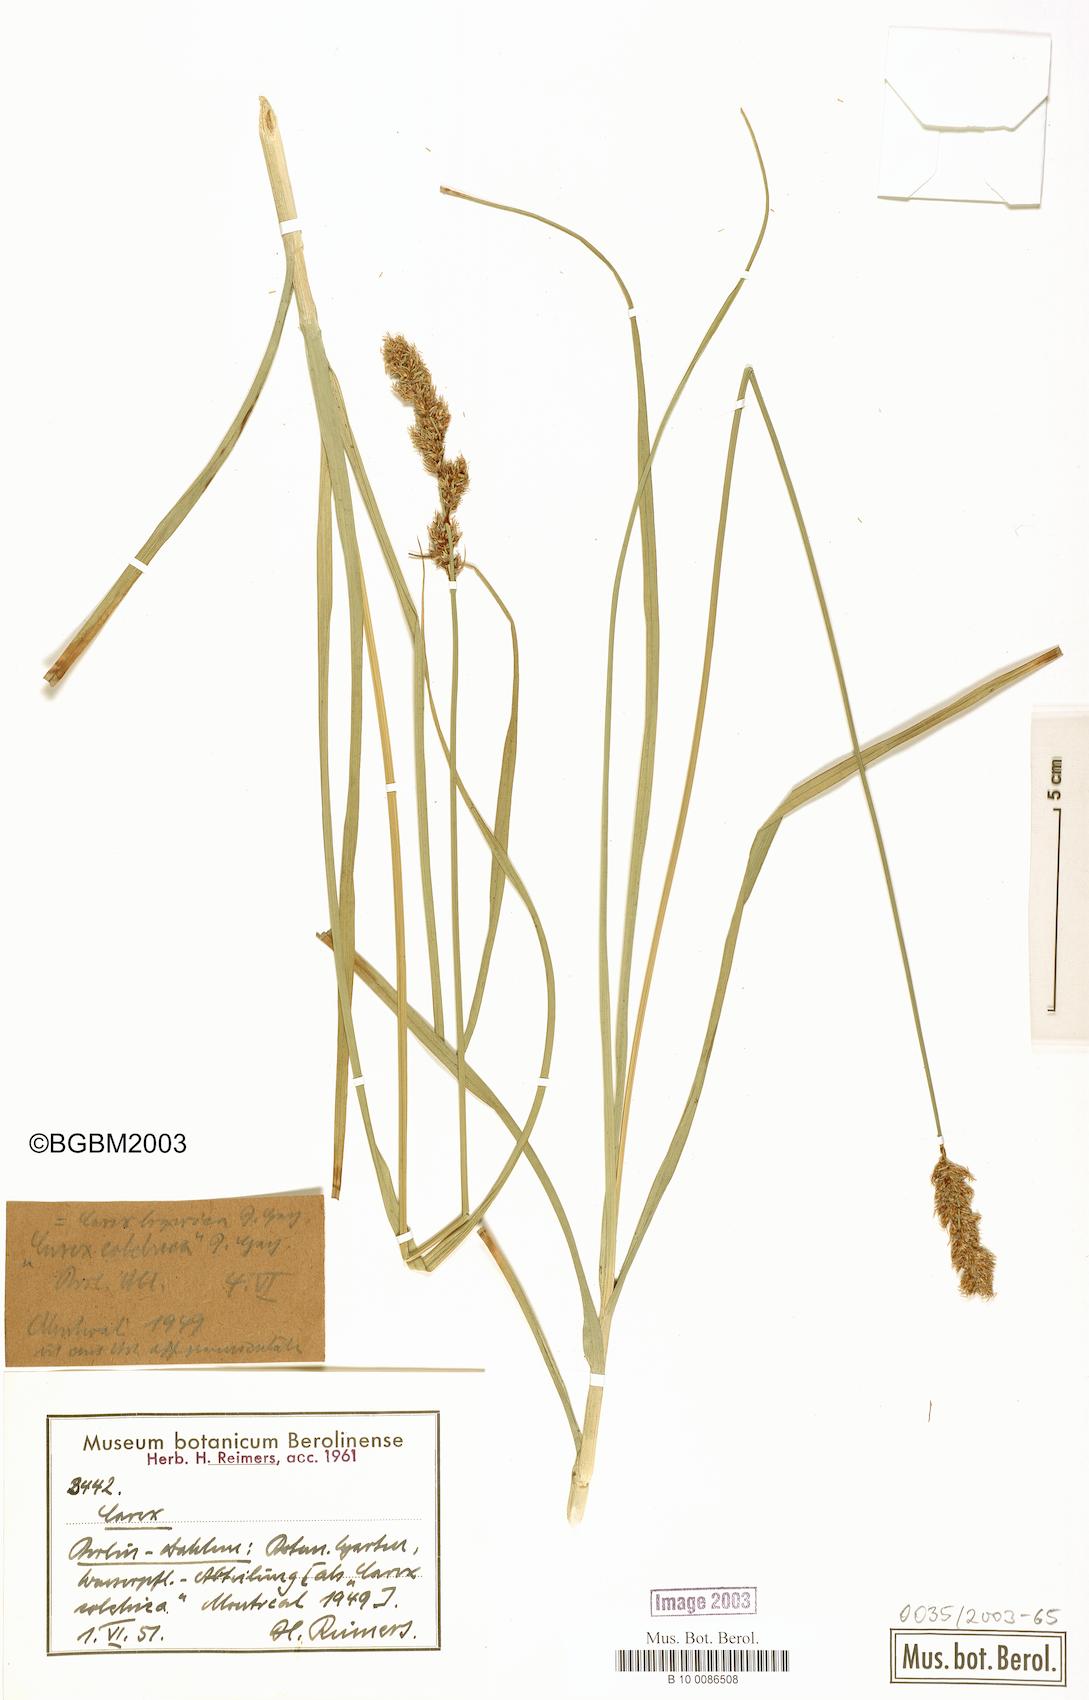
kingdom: Plantae
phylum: Tracheophyta
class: Liliopsida
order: Poales
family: Cyperaceae
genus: Carex
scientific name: Carex colchica
